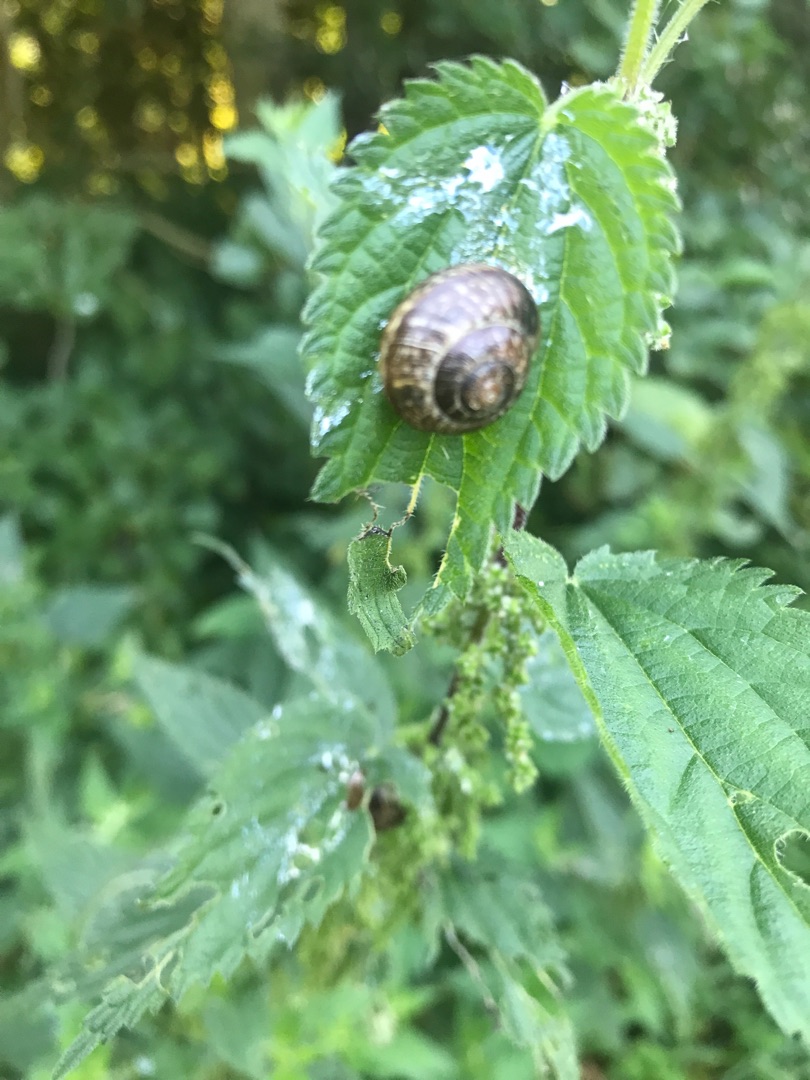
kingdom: Animalia
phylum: Mollusca
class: Gastropoda
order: Stylommatophora
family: Helicidae
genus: Arianta
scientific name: Arianta arbustorum
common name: Kratsnegl
